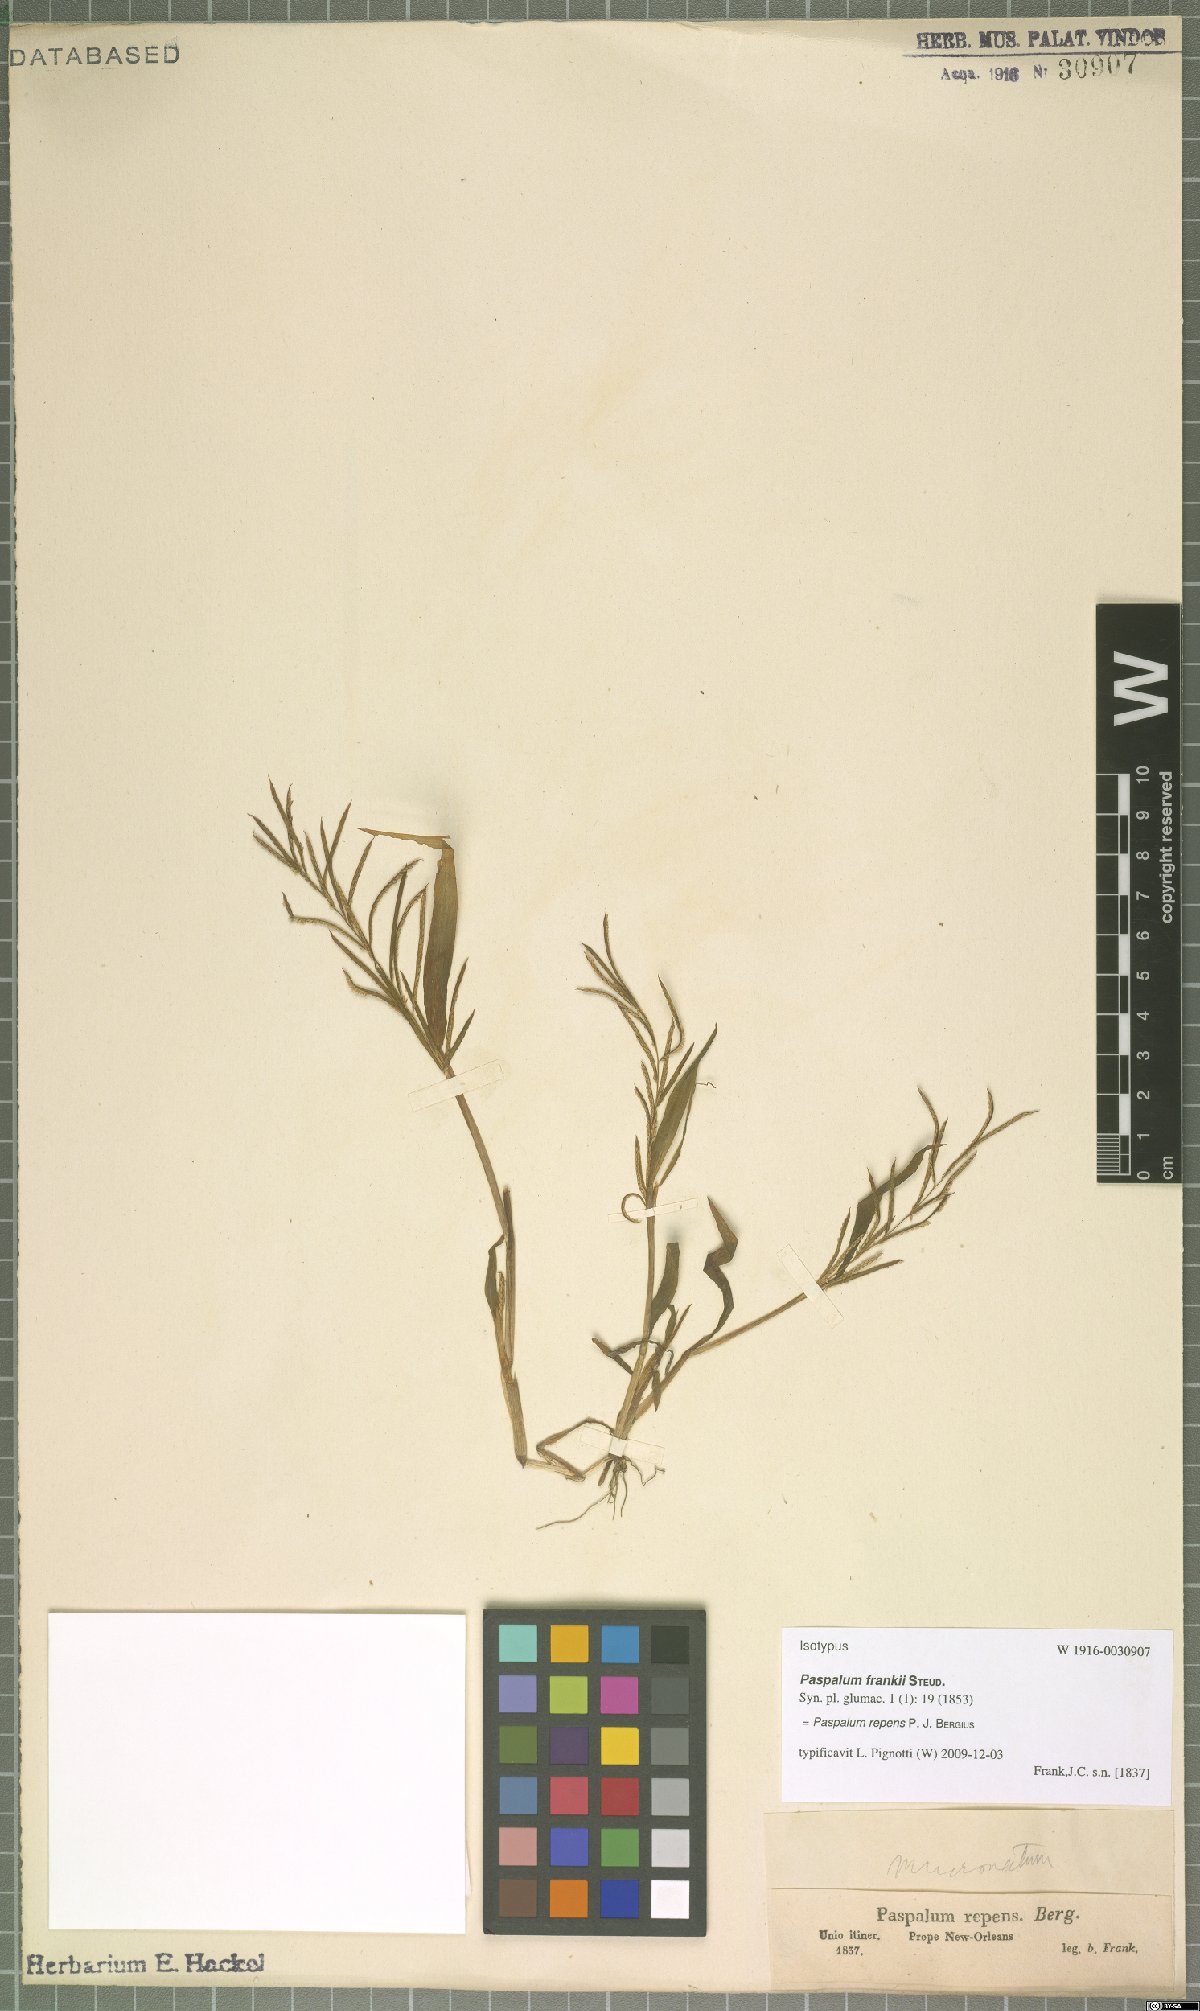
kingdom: Plantae
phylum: Tracheophyta
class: Liliopsida
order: Poales
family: Poaceae
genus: Paspalum
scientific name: Paspalum repens
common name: Water paspalum
